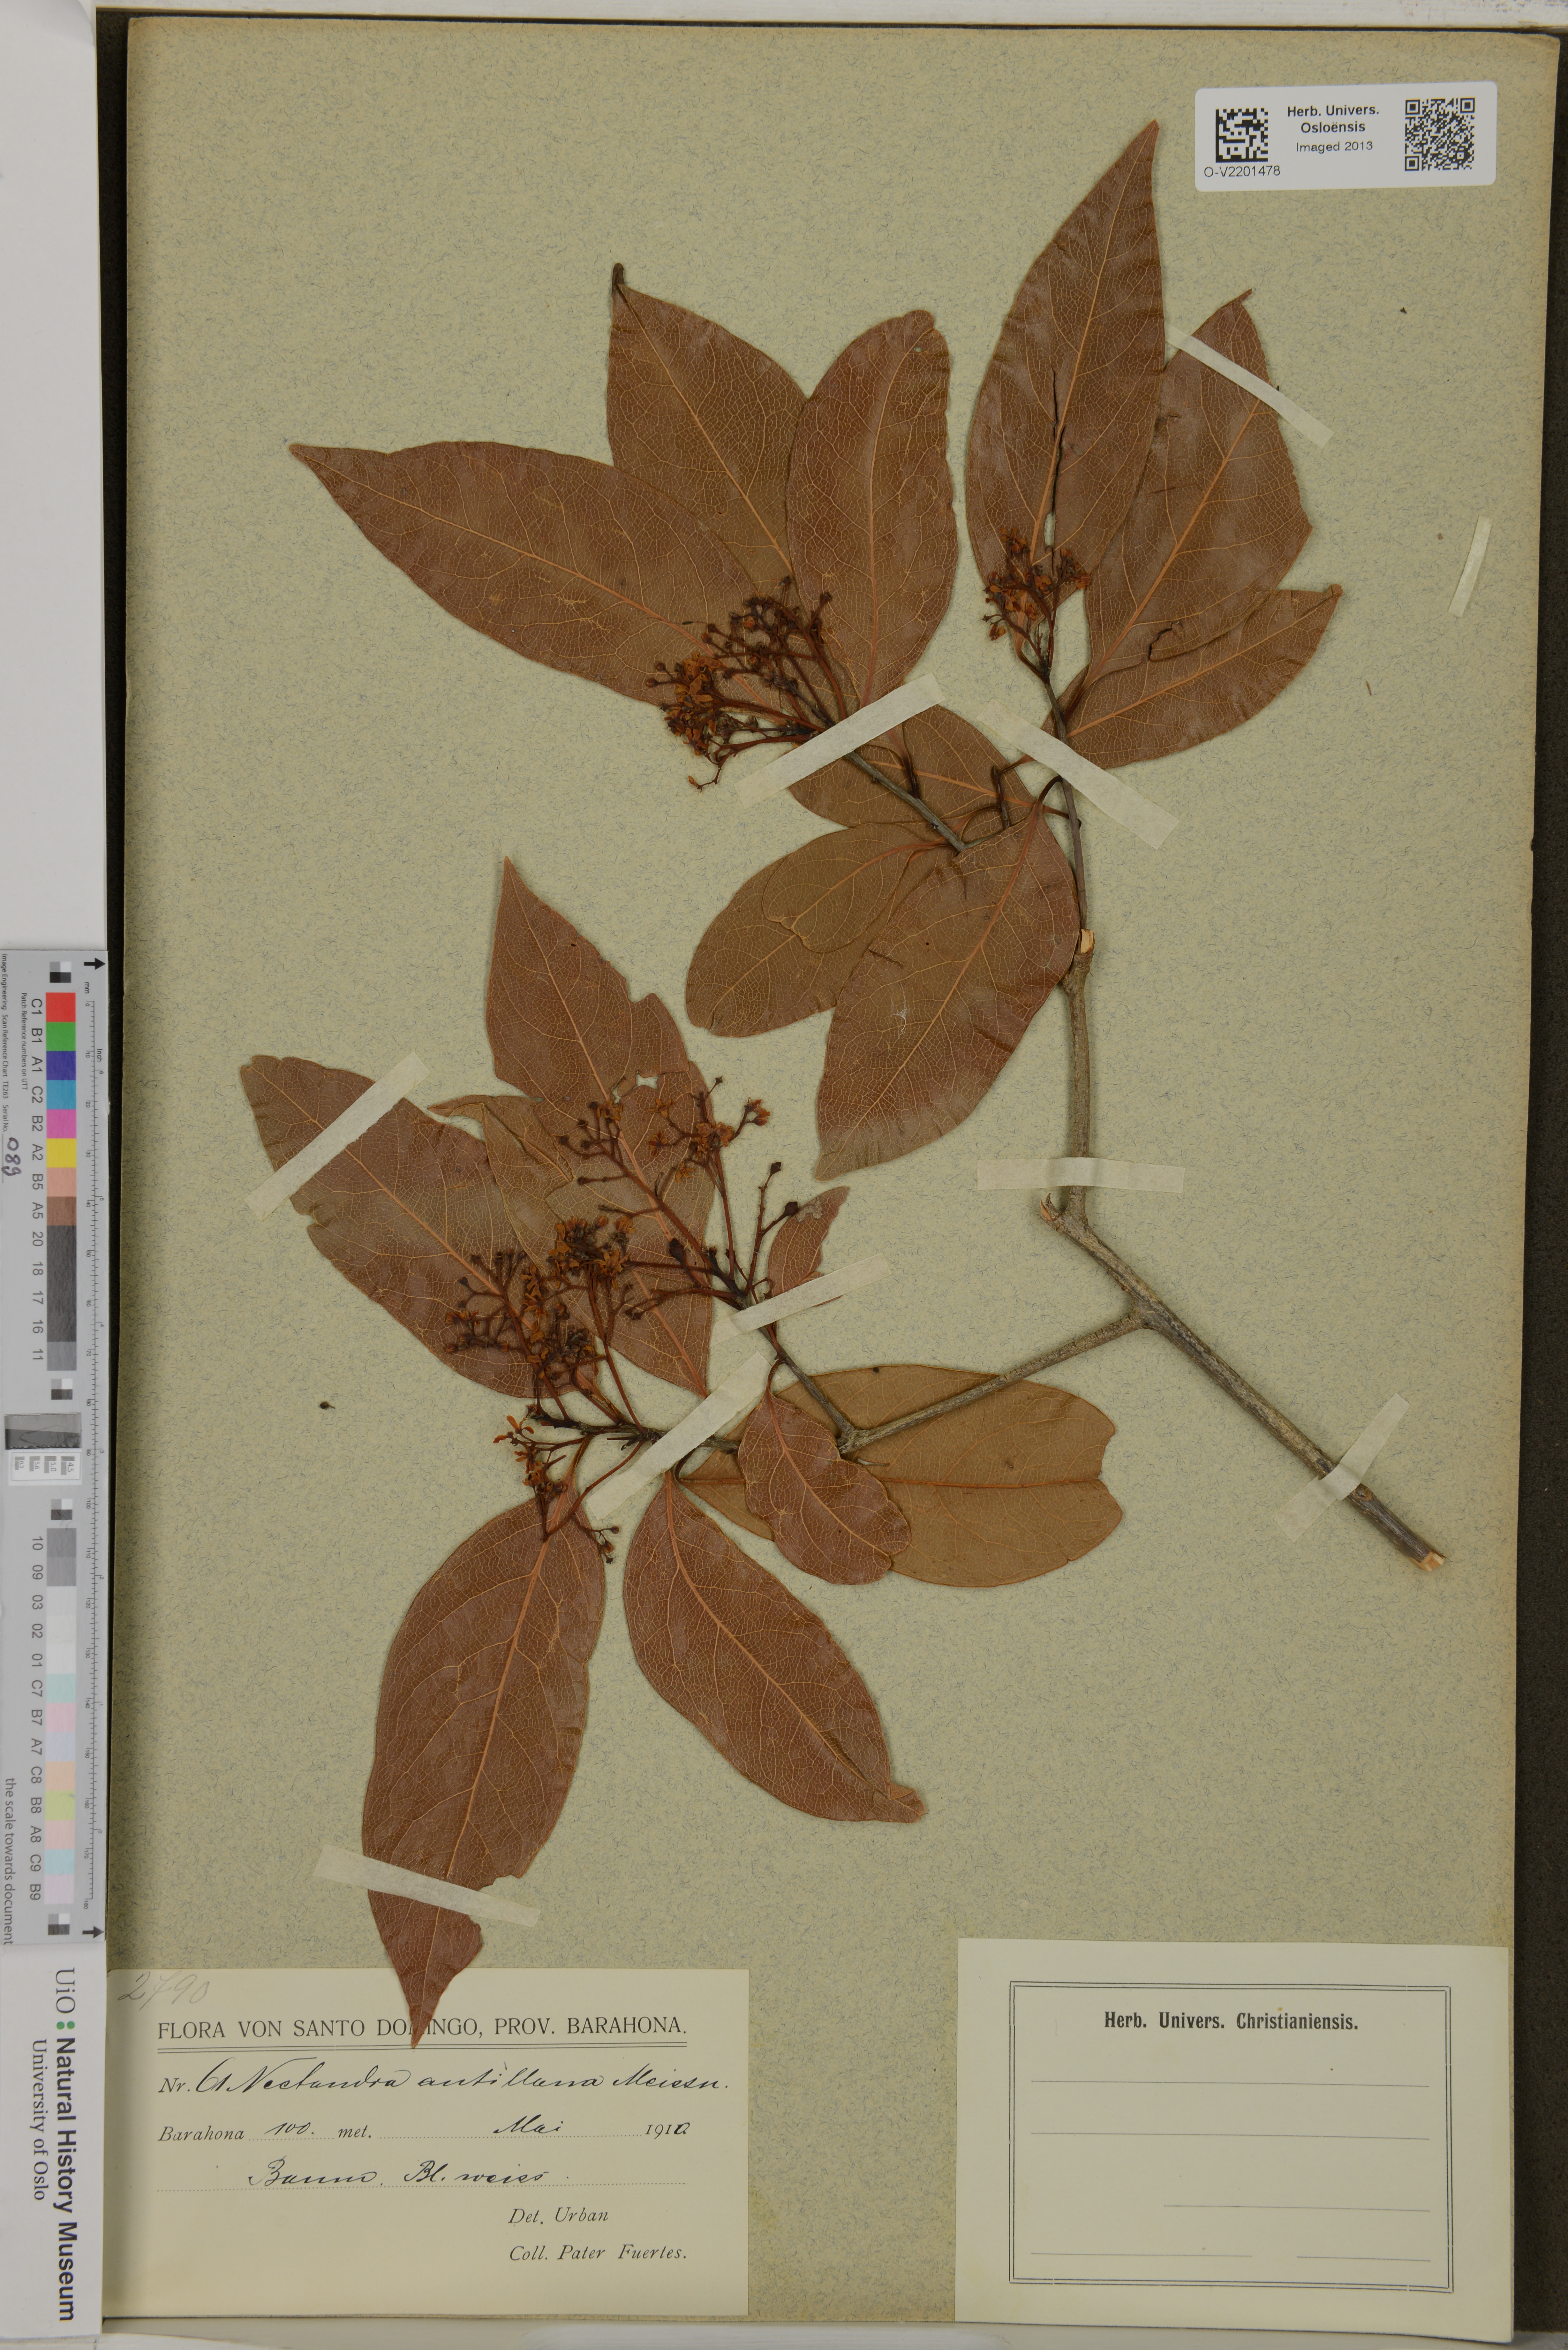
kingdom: Plantae
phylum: Tracheophyta
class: Magnoliopsida
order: Laurales
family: Lauraceae
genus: Nectandra
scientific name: Nectandra hihua
